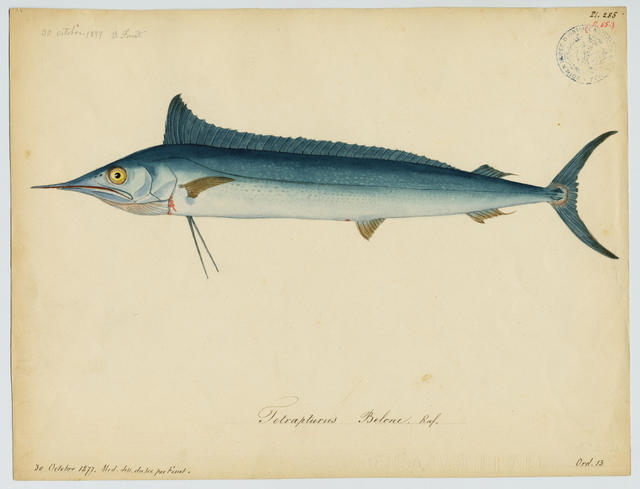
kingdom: Animalia
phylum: Chordata
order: Perciformes
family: Istiophoridae
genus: Tetrapturus
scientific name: Tetrapturus belone
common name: Mediterranean shortbill spearfish
